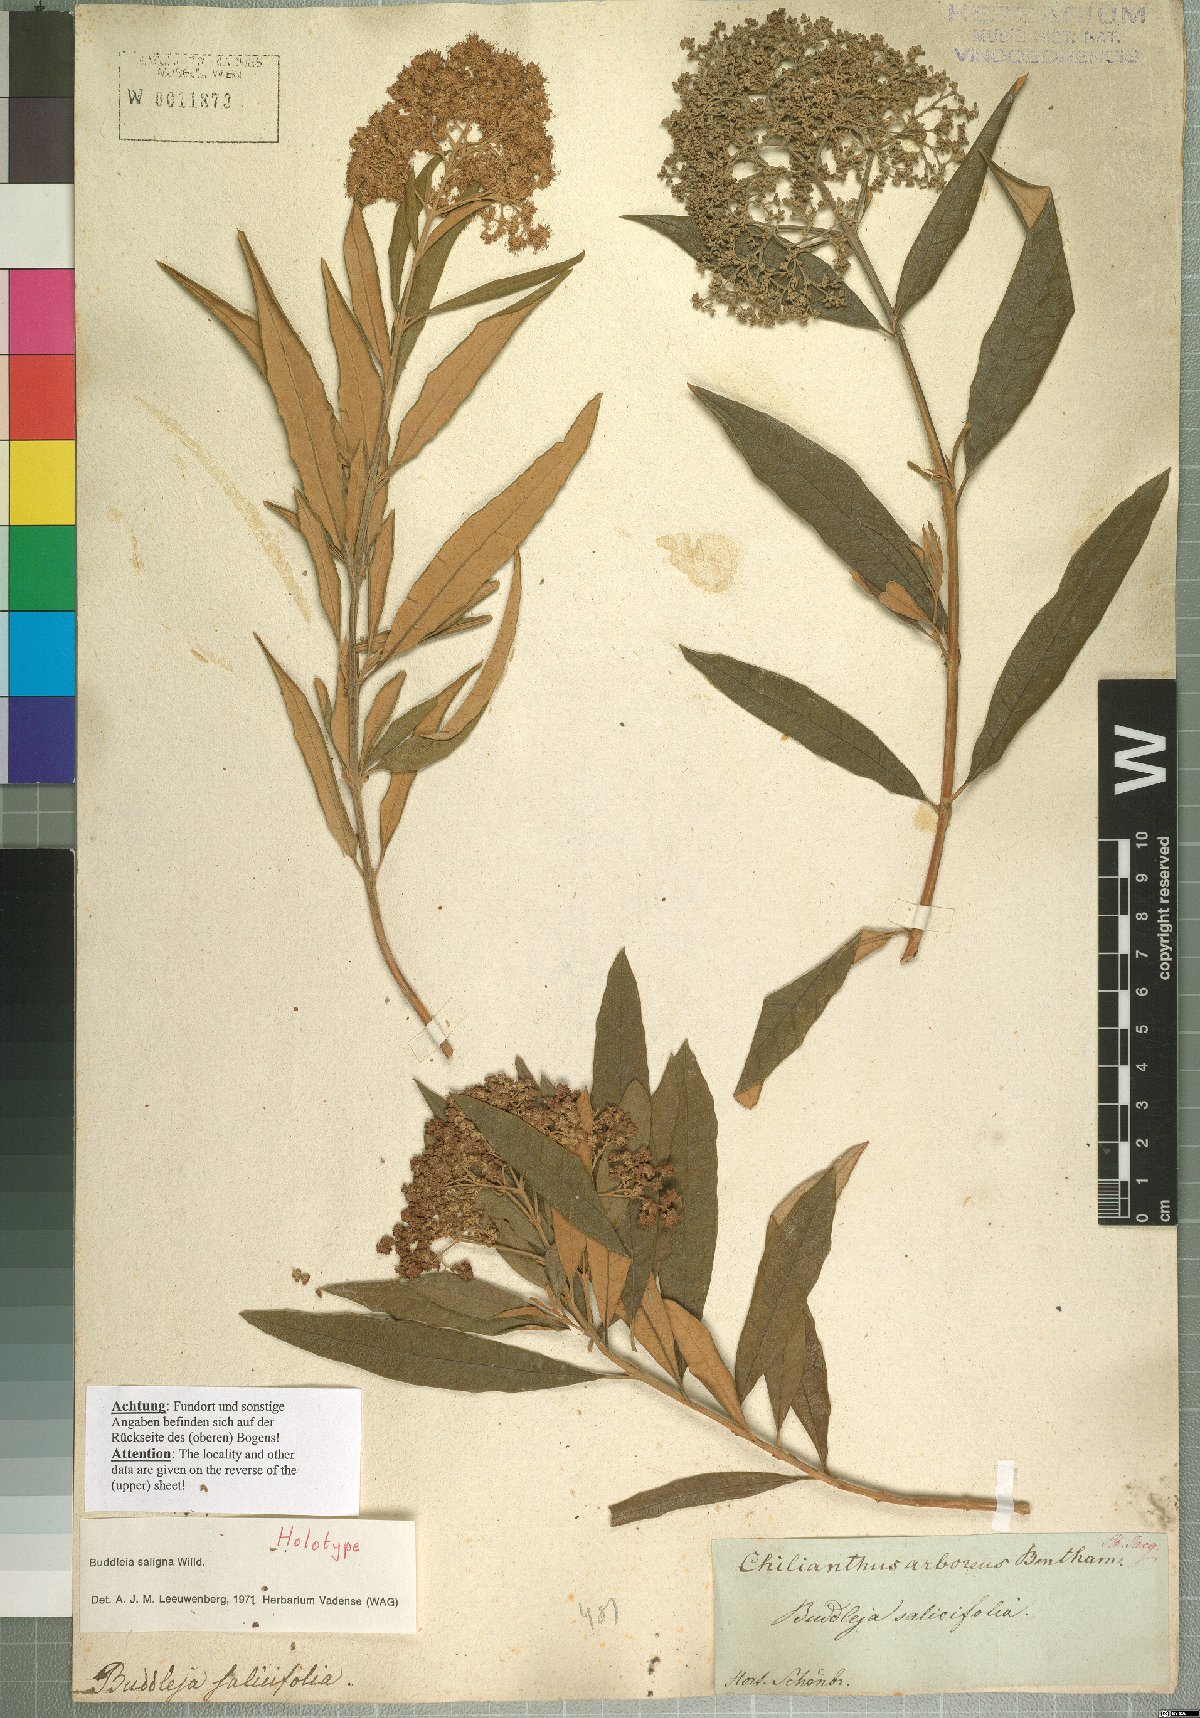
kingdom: Plantae
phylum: Tracheophyta
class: Magnoliopsida
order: Lamiales
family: Scrophulariaceae
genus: Buddleja
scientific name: Buddleja saligna
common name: False olive
